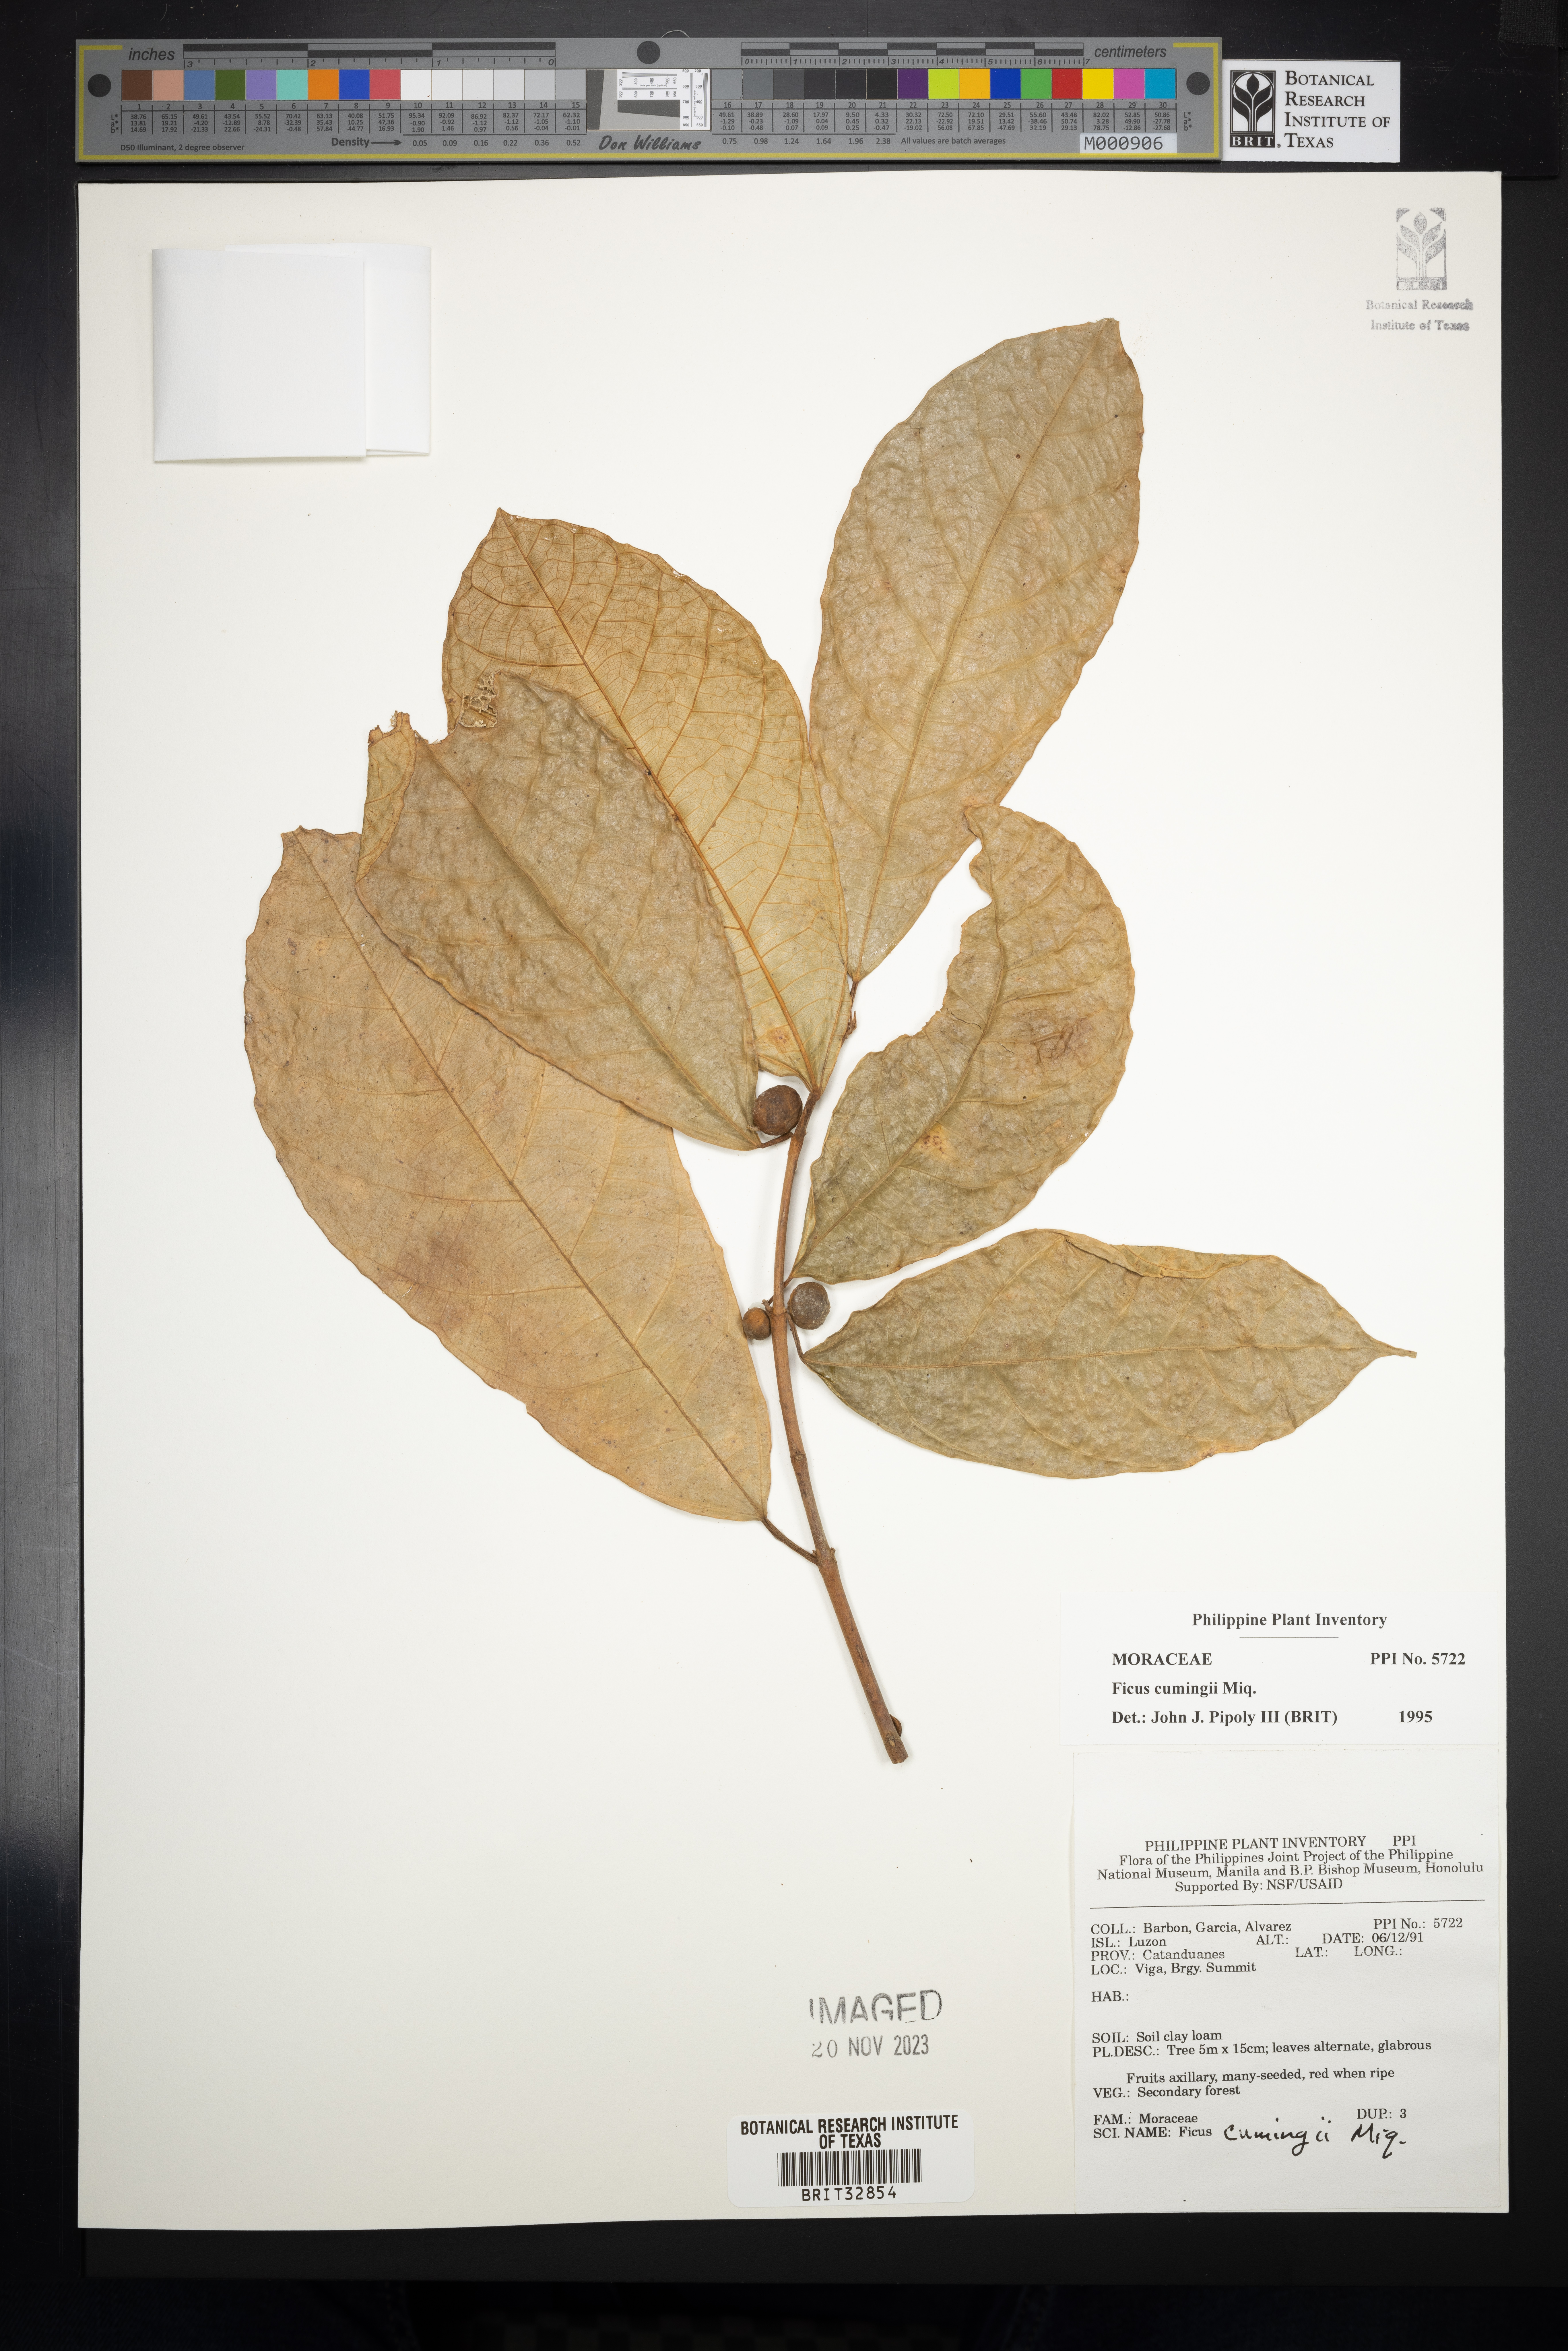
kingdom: Plantae
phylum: Tracheophyta
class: Magnoliopsida
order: Rosales
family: Moraceae
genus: Ficus
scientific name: Ficus cumingii
